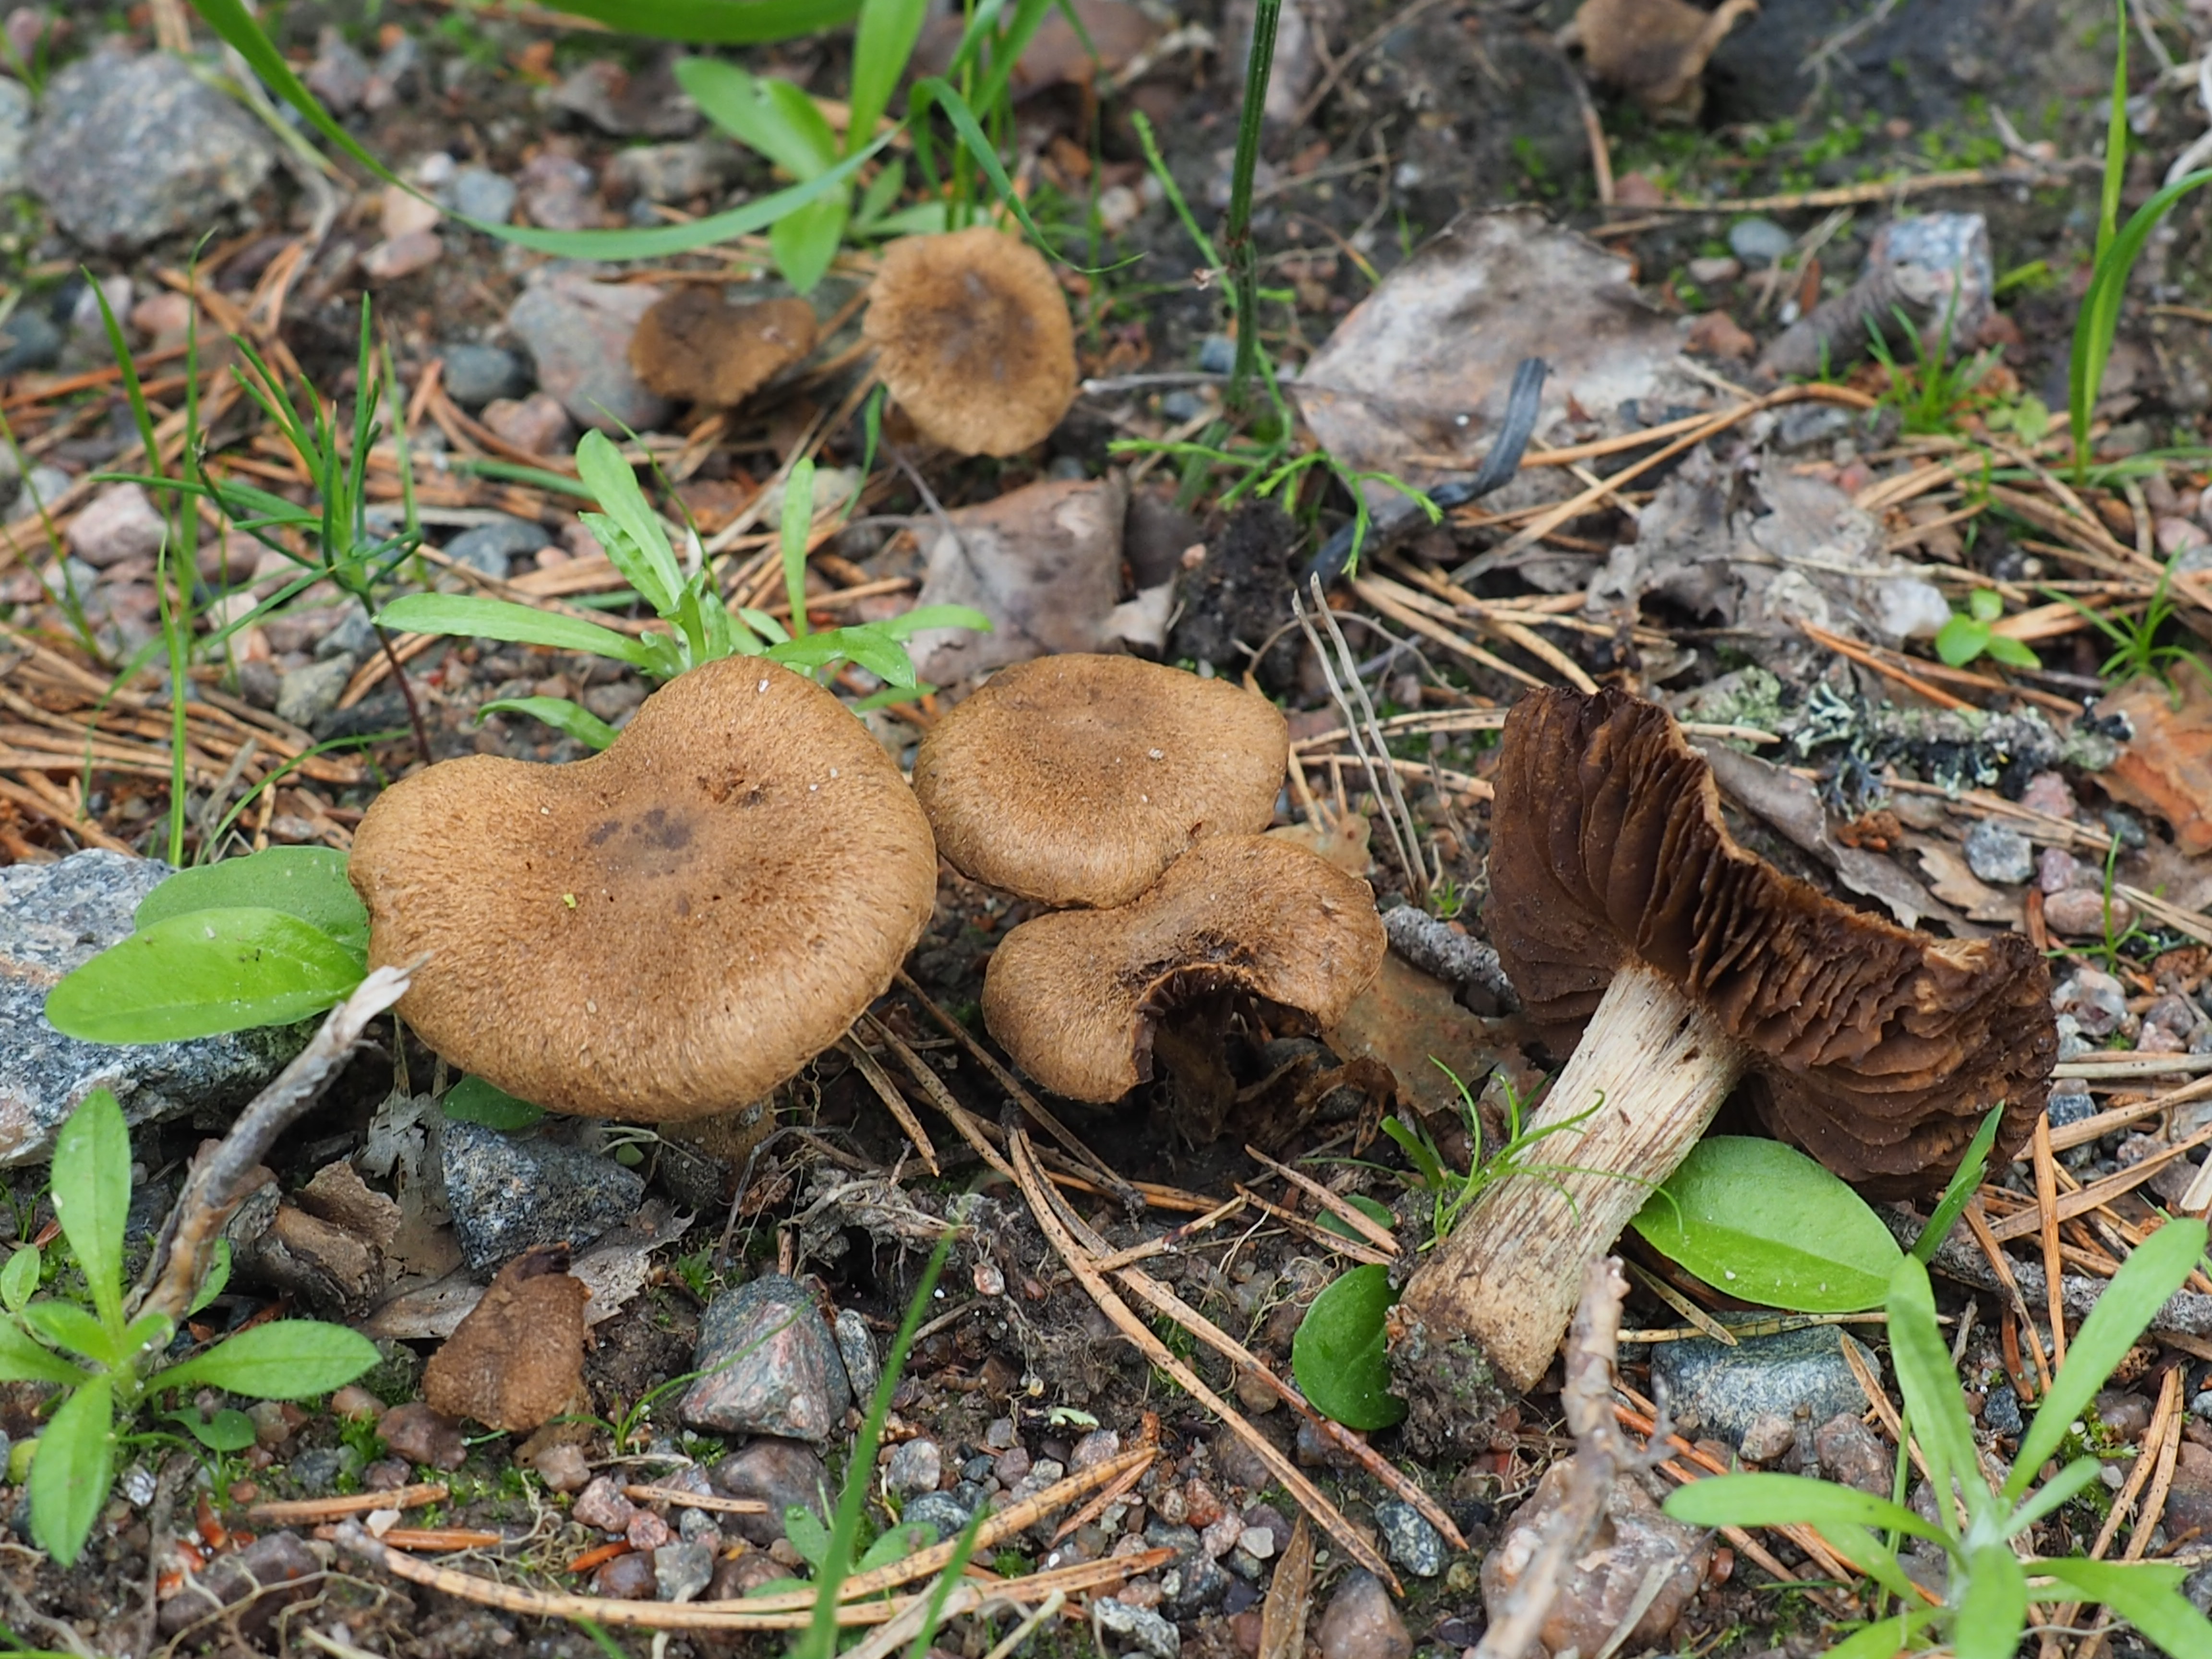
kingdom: Fungi
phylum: Basidiomycota
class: Agaricomycetes
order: Agaricales
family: Inocybaceae
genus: Inocybe
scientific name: Inocybe lacera
